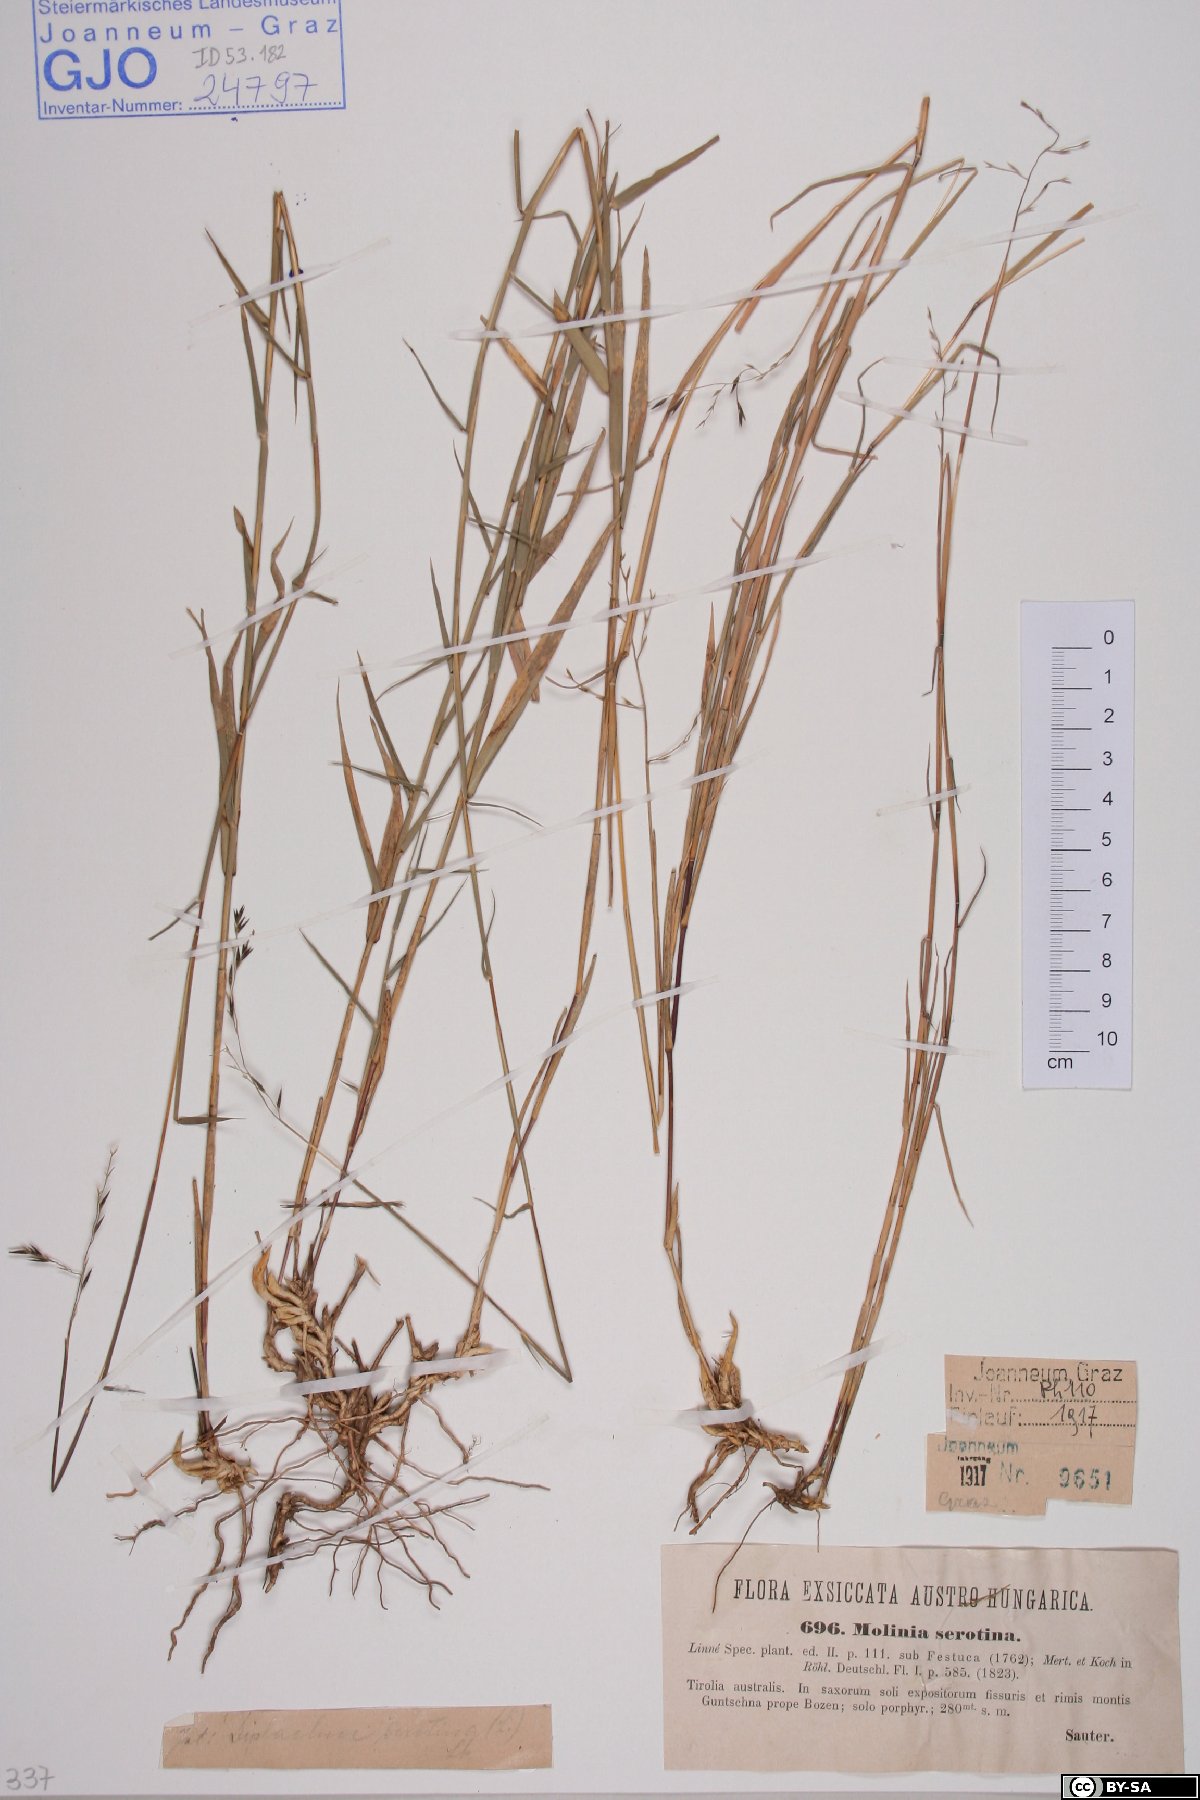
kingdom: Plantae
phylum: Tracheophyta
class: Liliopsida
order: Poales
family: Poaceae
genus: Cleistogenes
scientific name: Cleistogenes serotina
